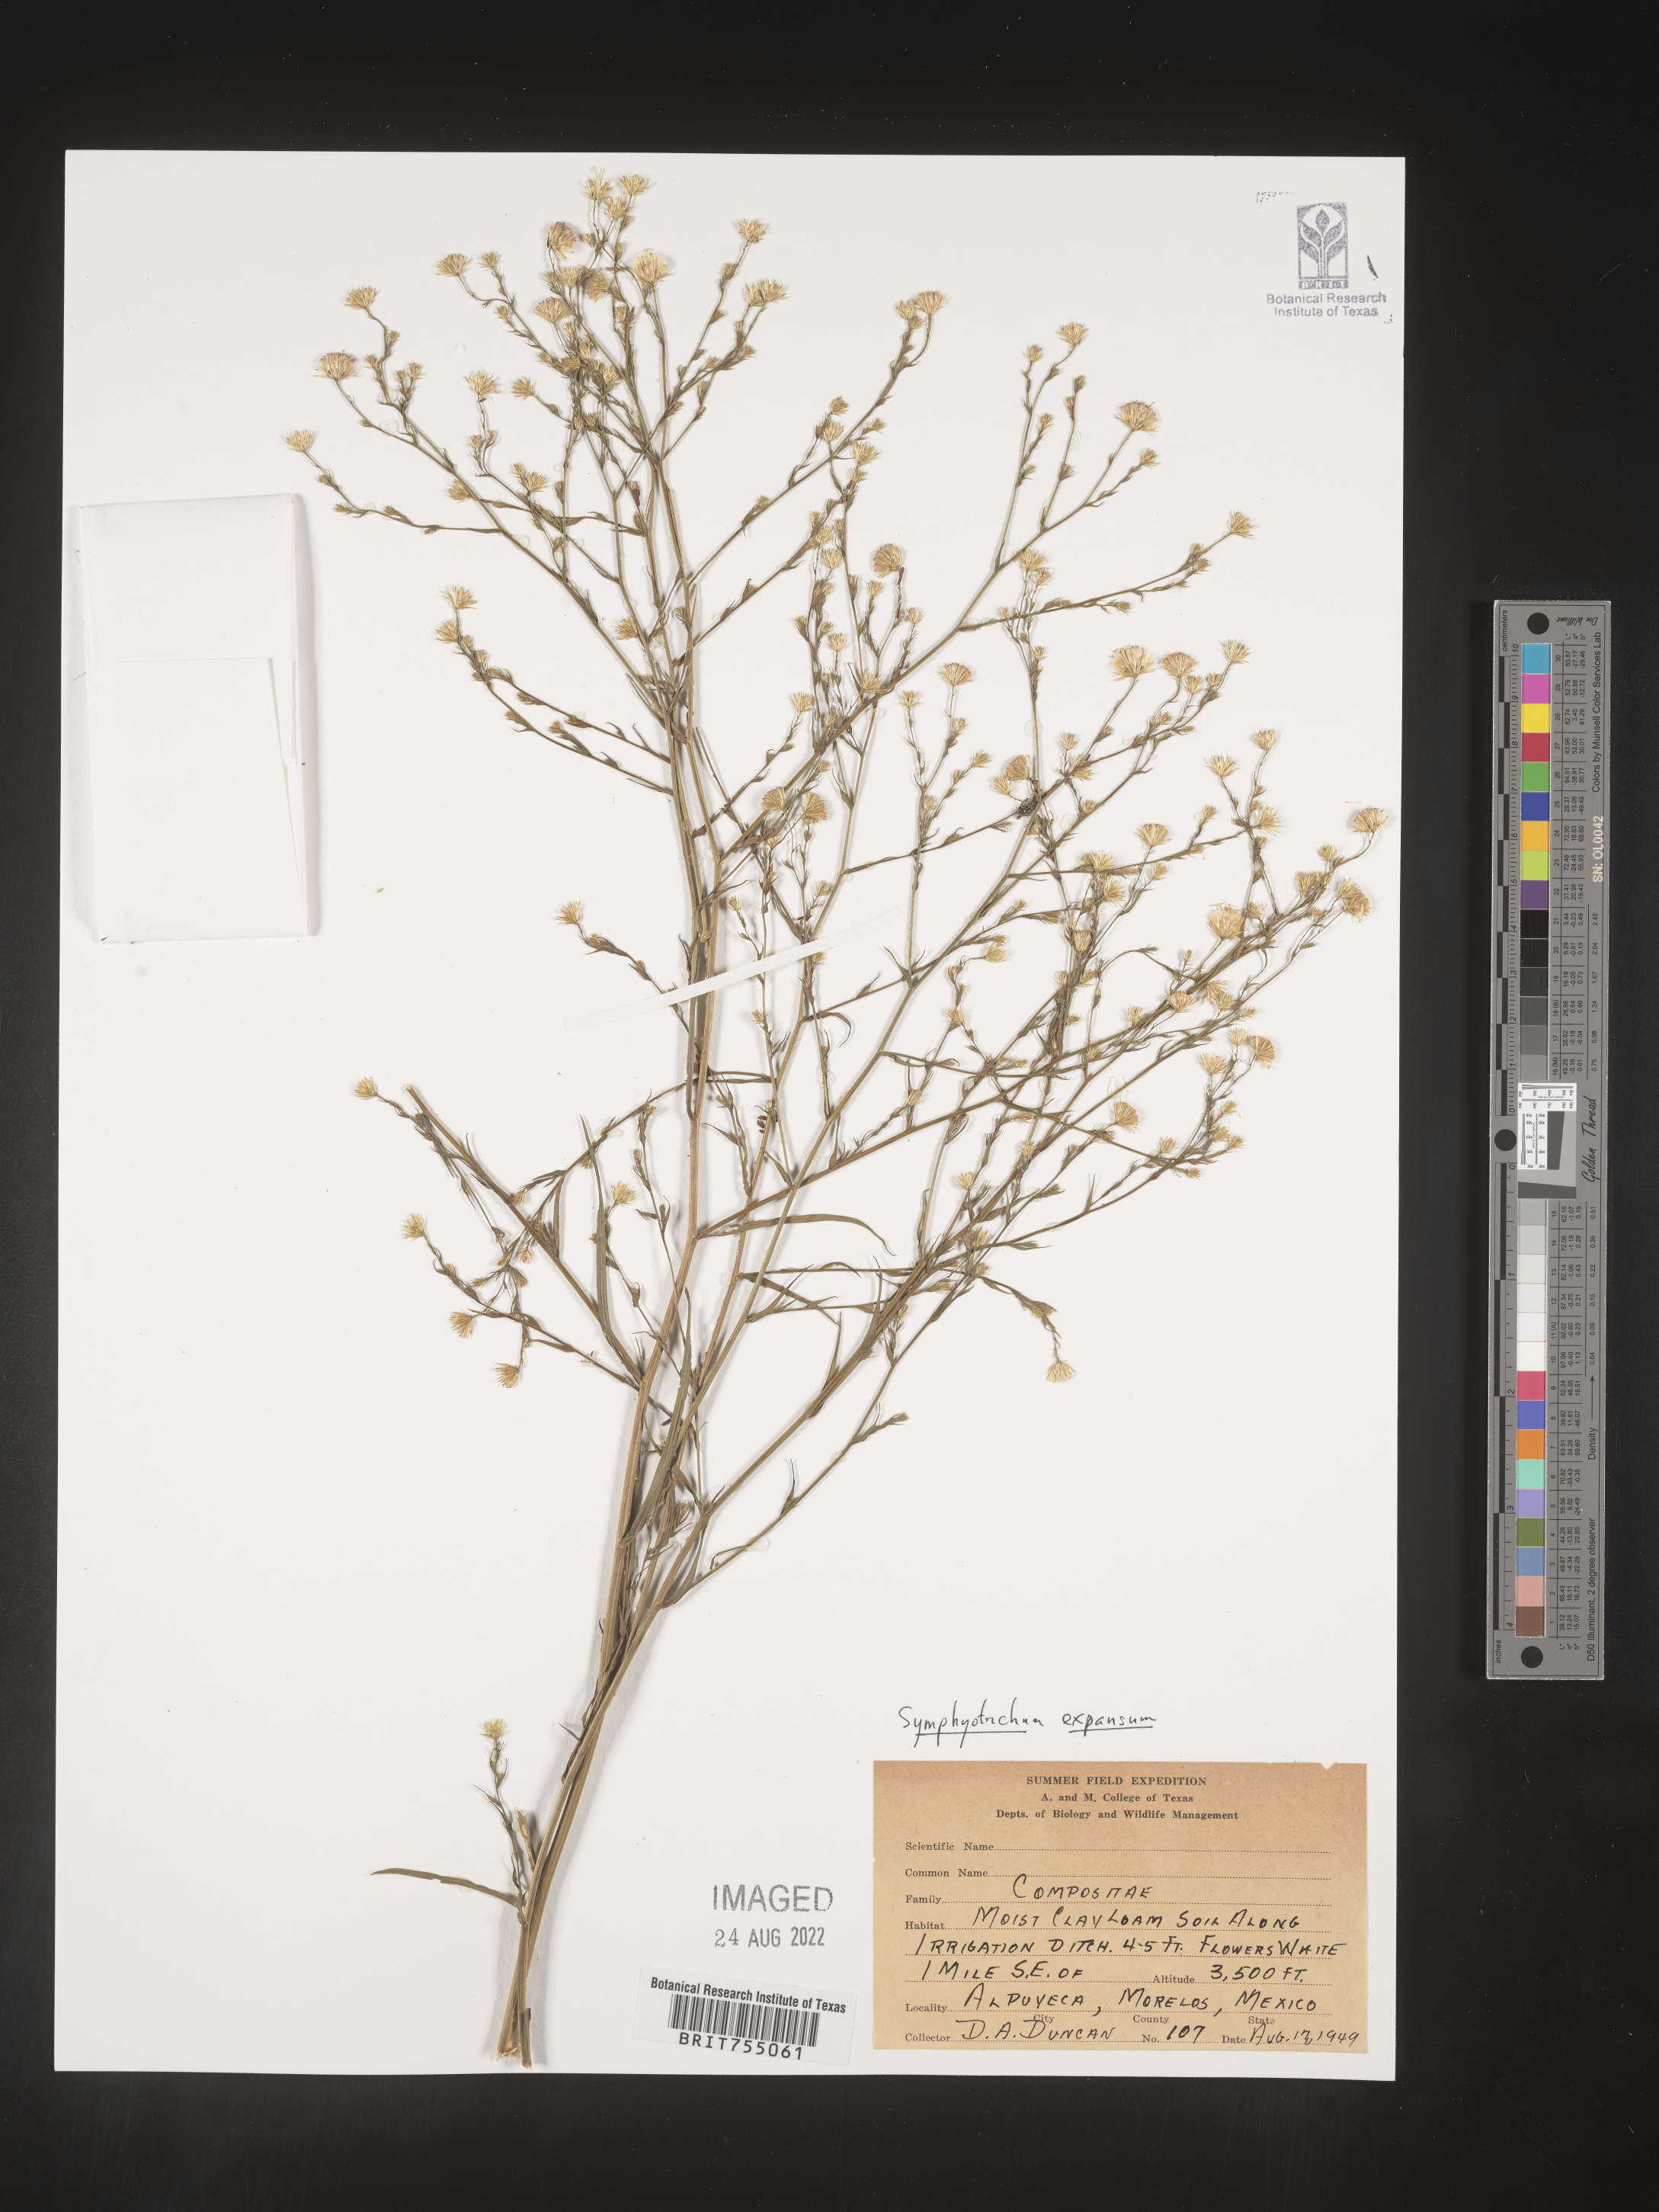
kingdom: Plantae
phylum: Tracheophyta
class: Magnoliopsida
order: Asterales
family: Asteraceae
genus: Symphyotrichum
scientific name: Symphyotrichum expansum
